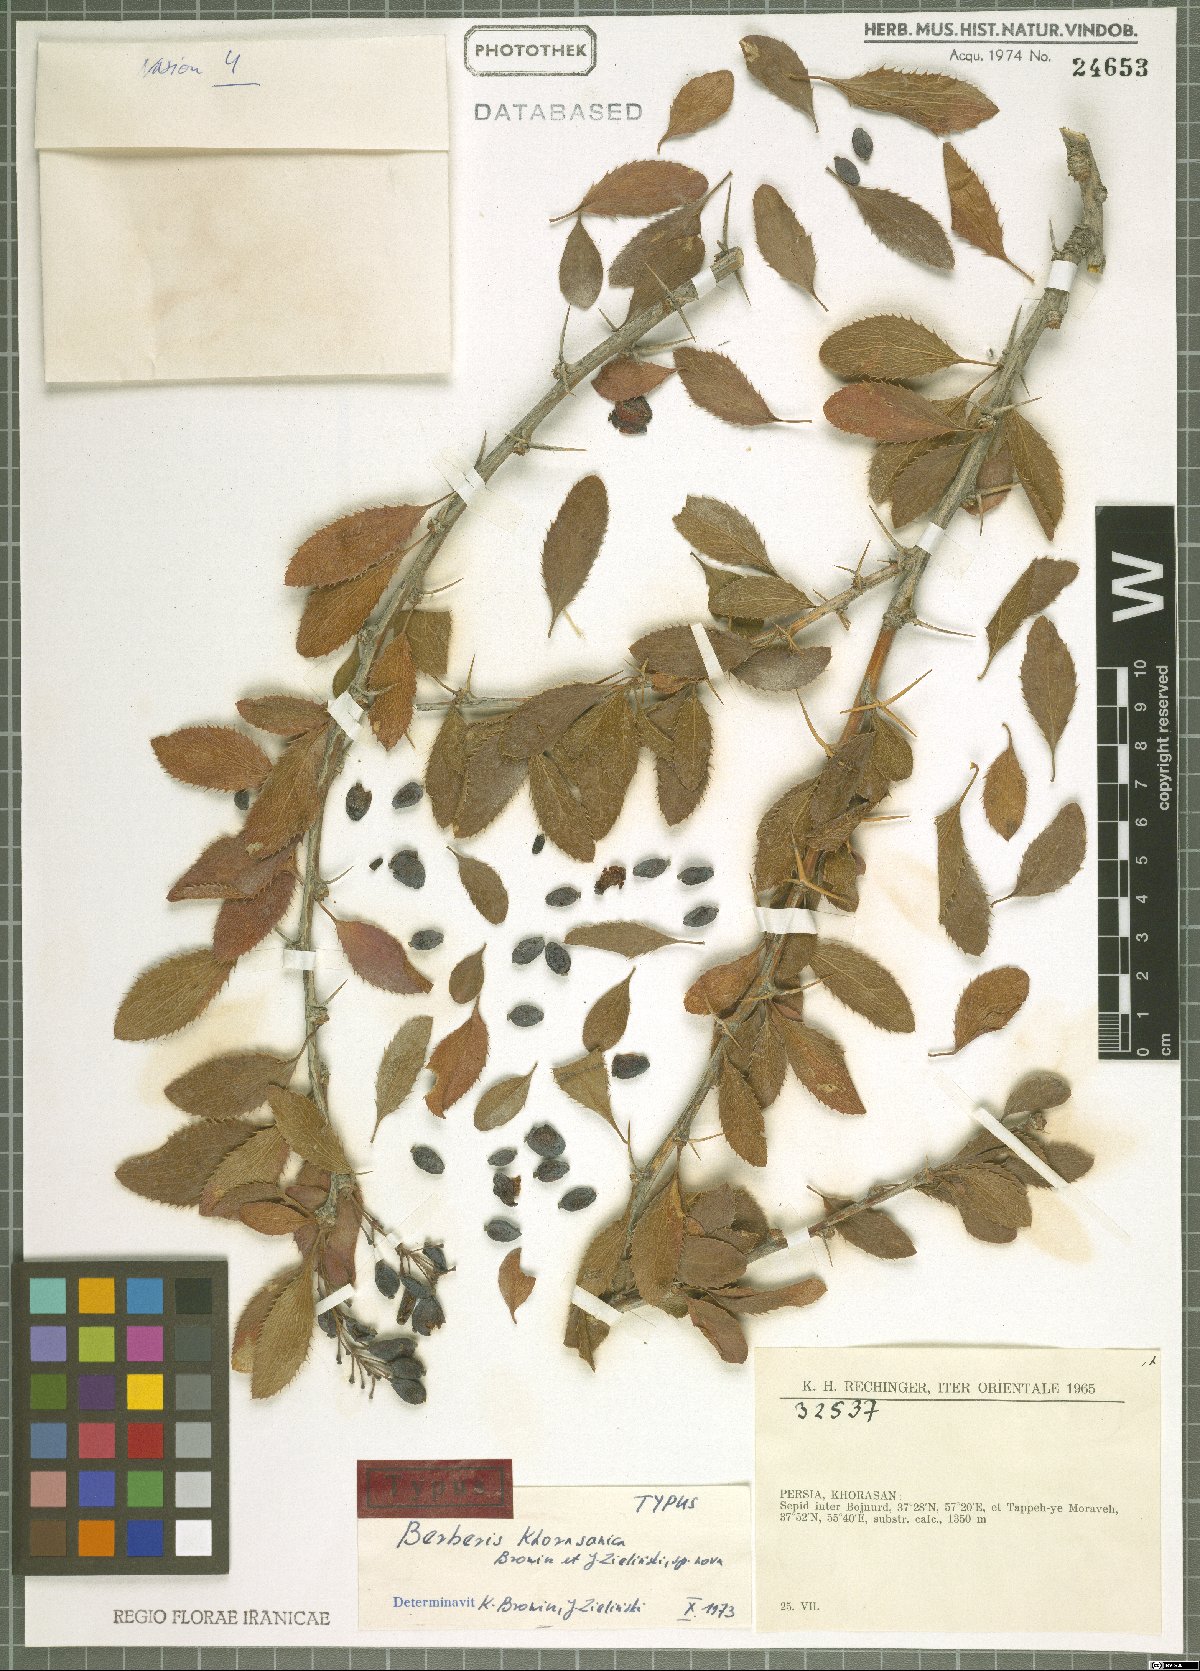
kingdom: Plantae
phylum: Tracheophyta
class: Magnoliopsida
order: Ranunculales
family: Berberidaceae
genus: Berberis
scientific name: Berberis khorasanica
